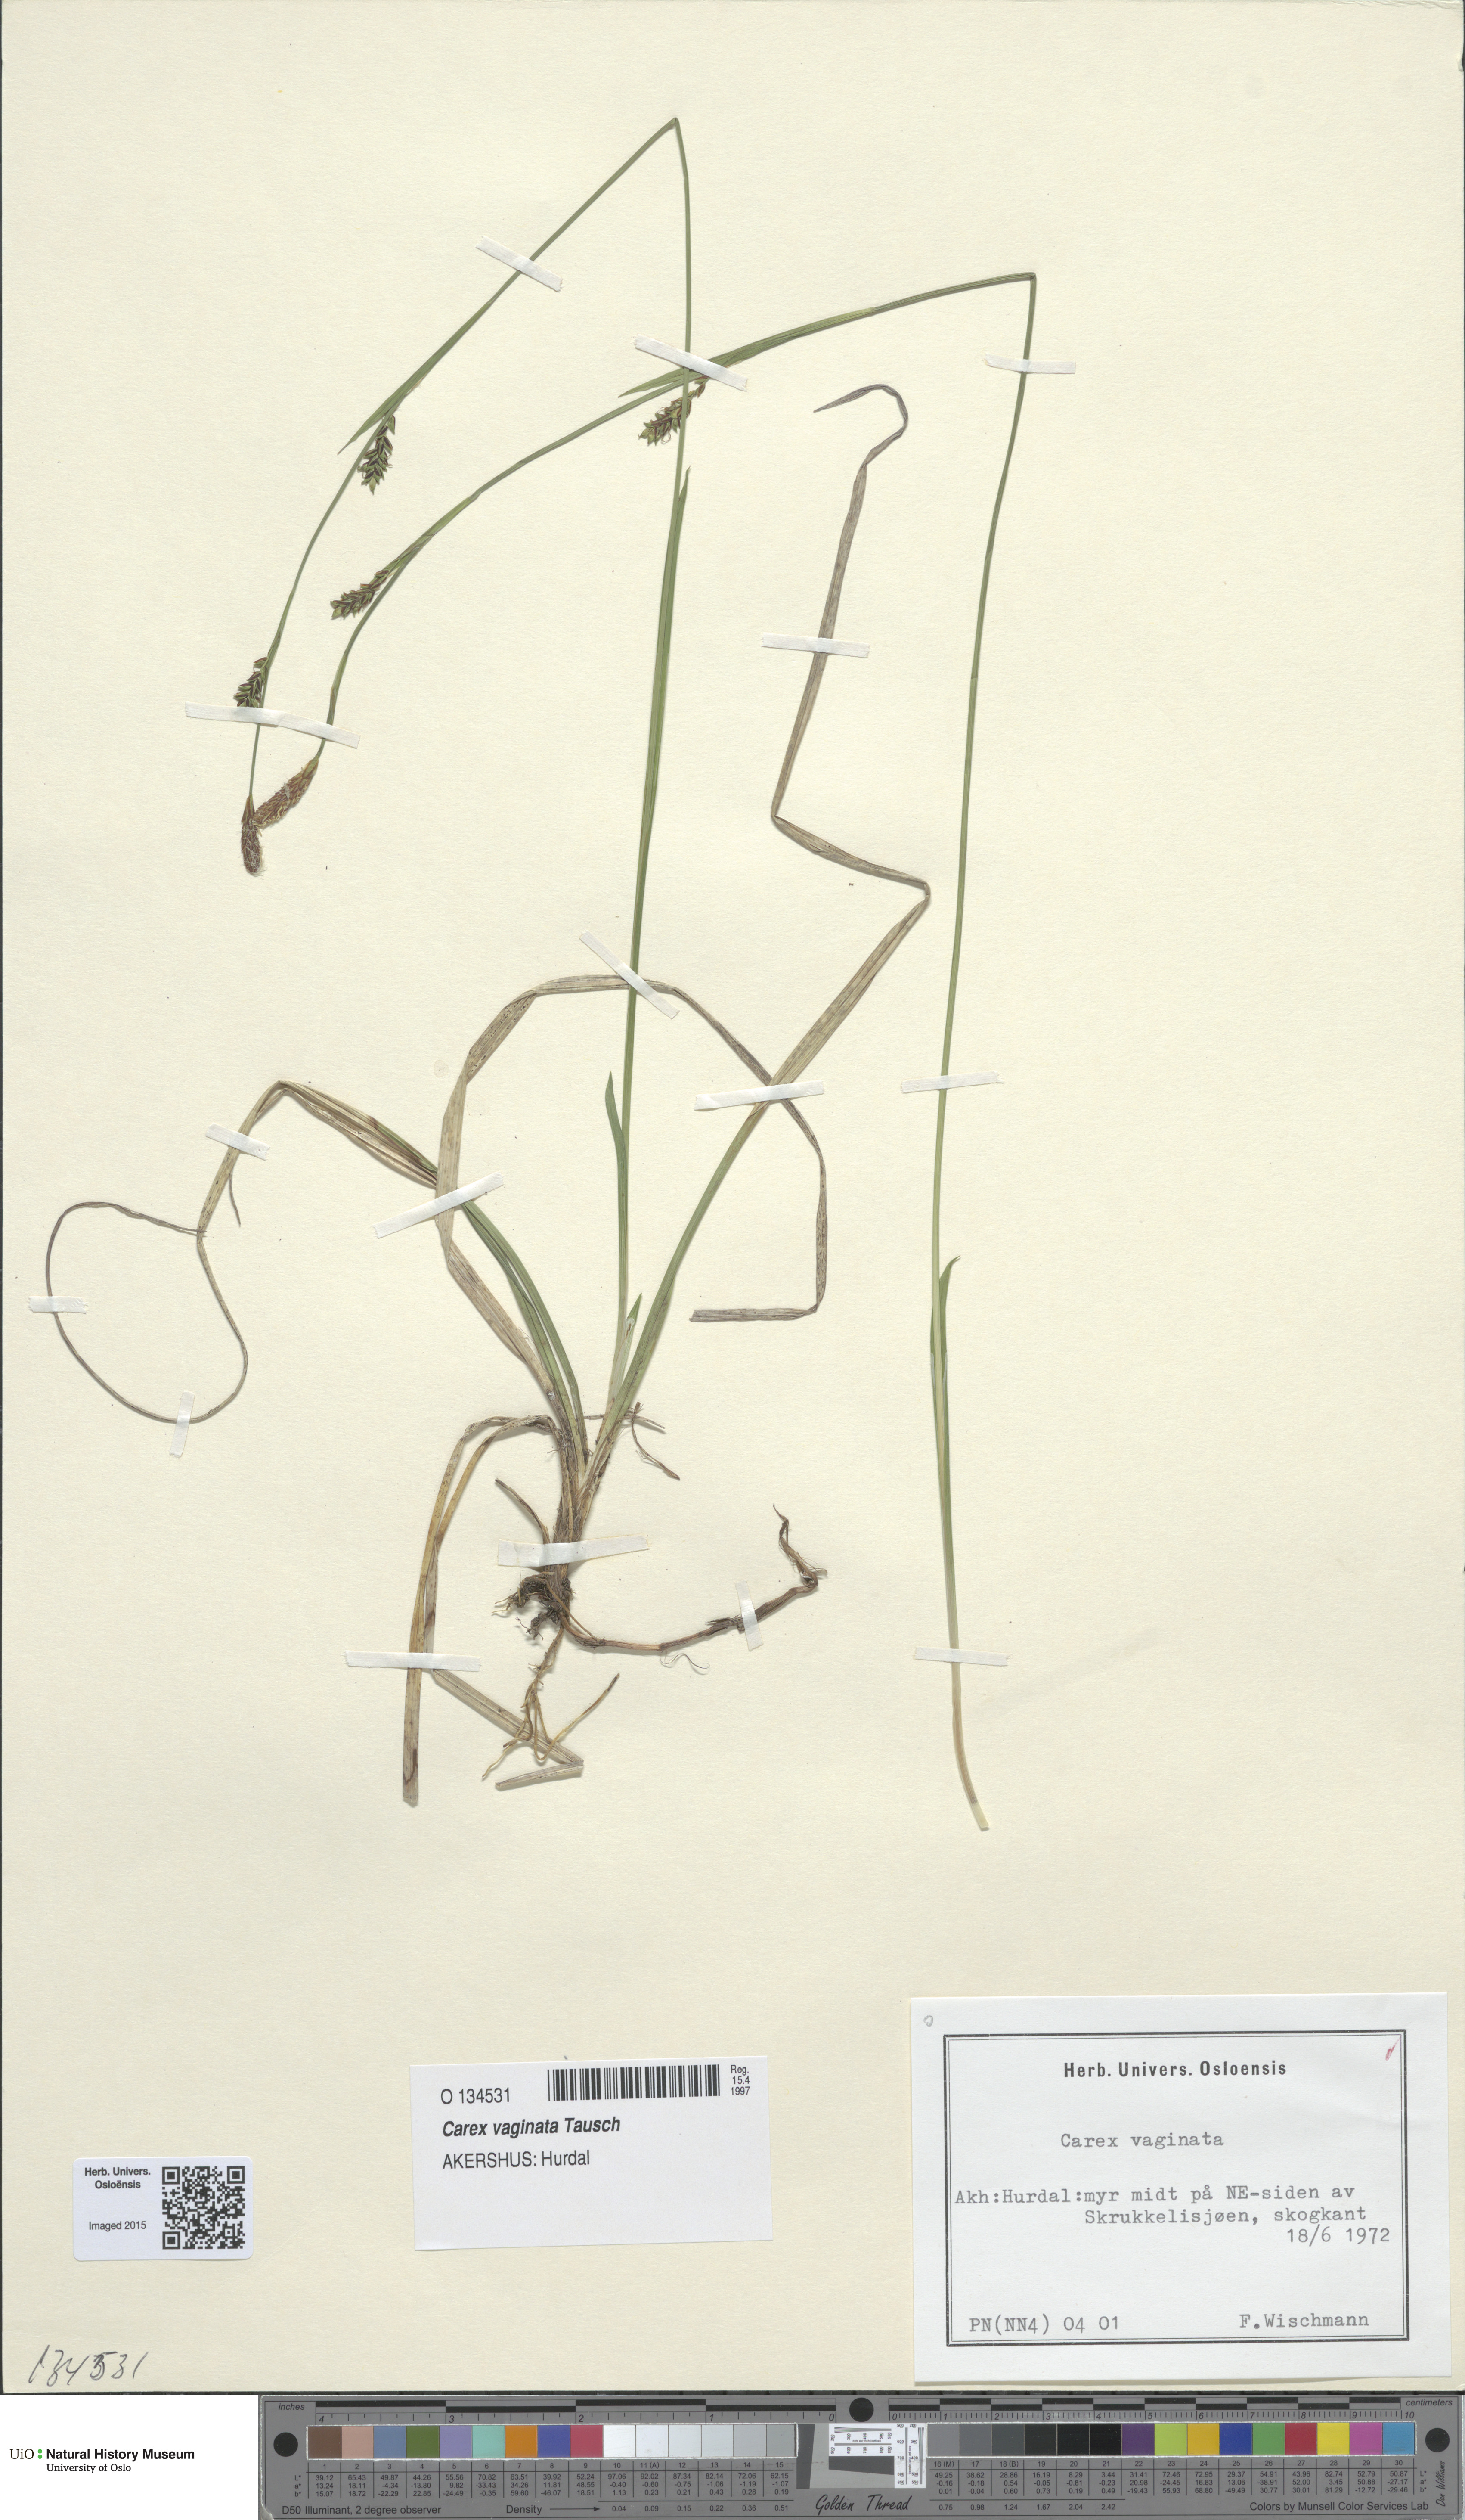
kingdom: Plantae
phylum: Tracheophyta
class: Liliopsida
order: Poales
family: Cyperaceae
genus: Carex
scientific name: Carex vaginata
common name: Sheathed sedge
